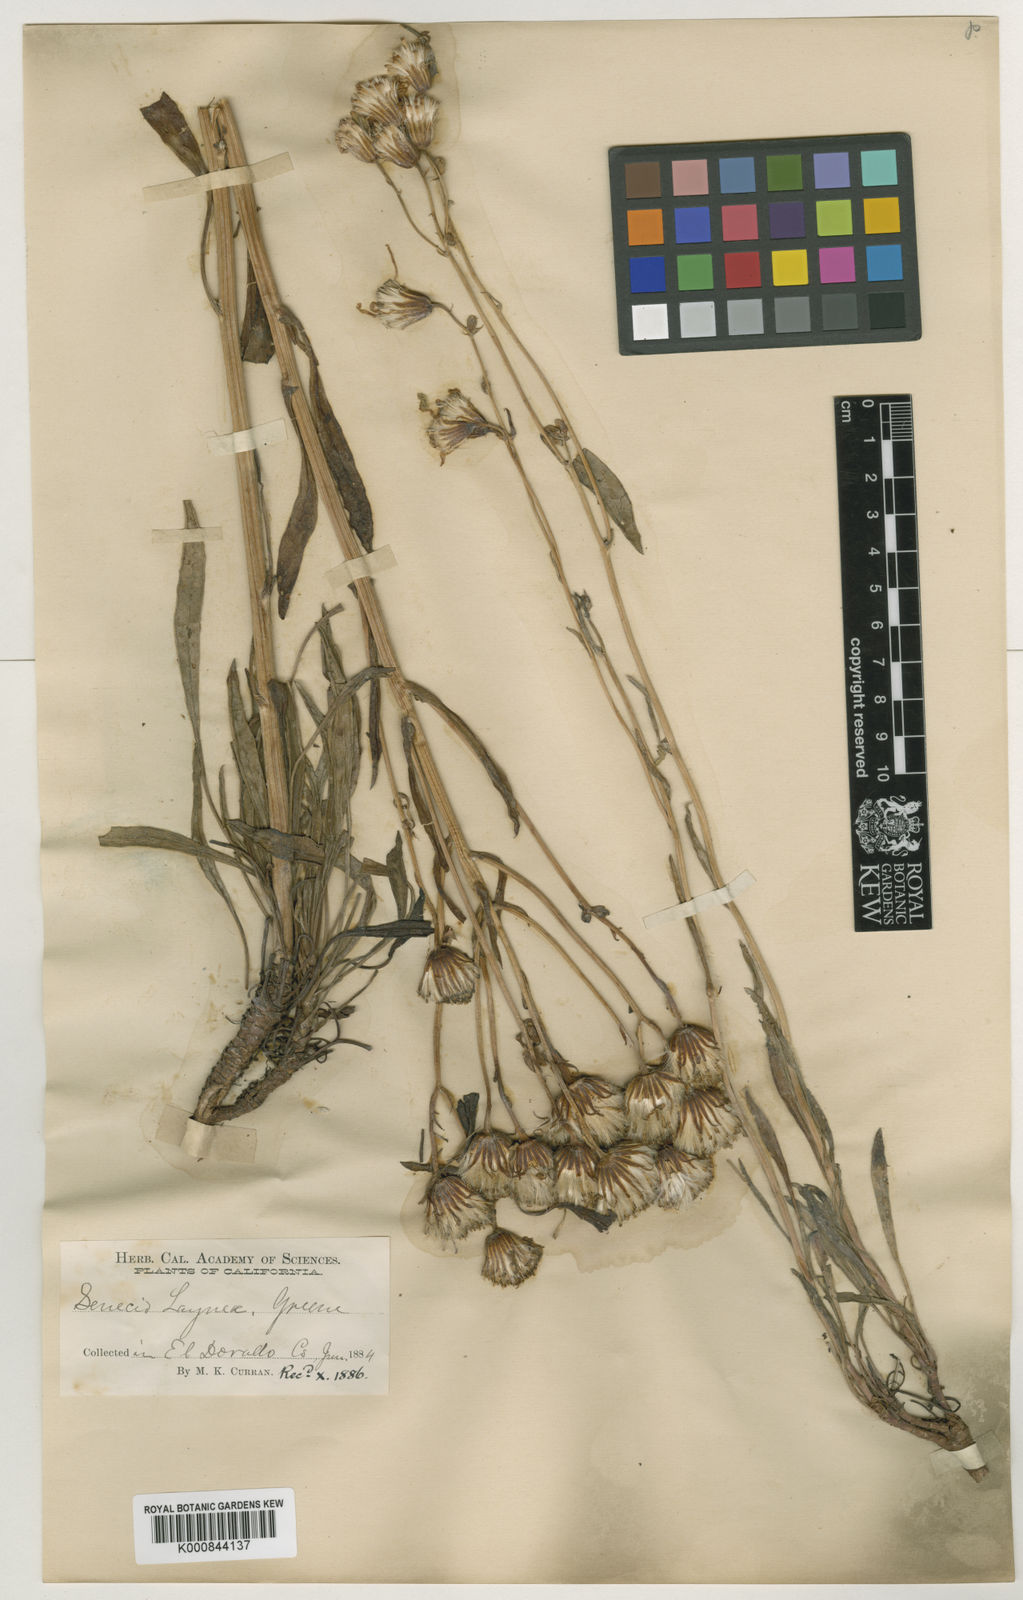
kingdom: Plantae
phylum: Tracheophyta
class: Magnoliopsida
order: Asterales
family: Asteraceae
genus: Packera
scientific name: Packera
